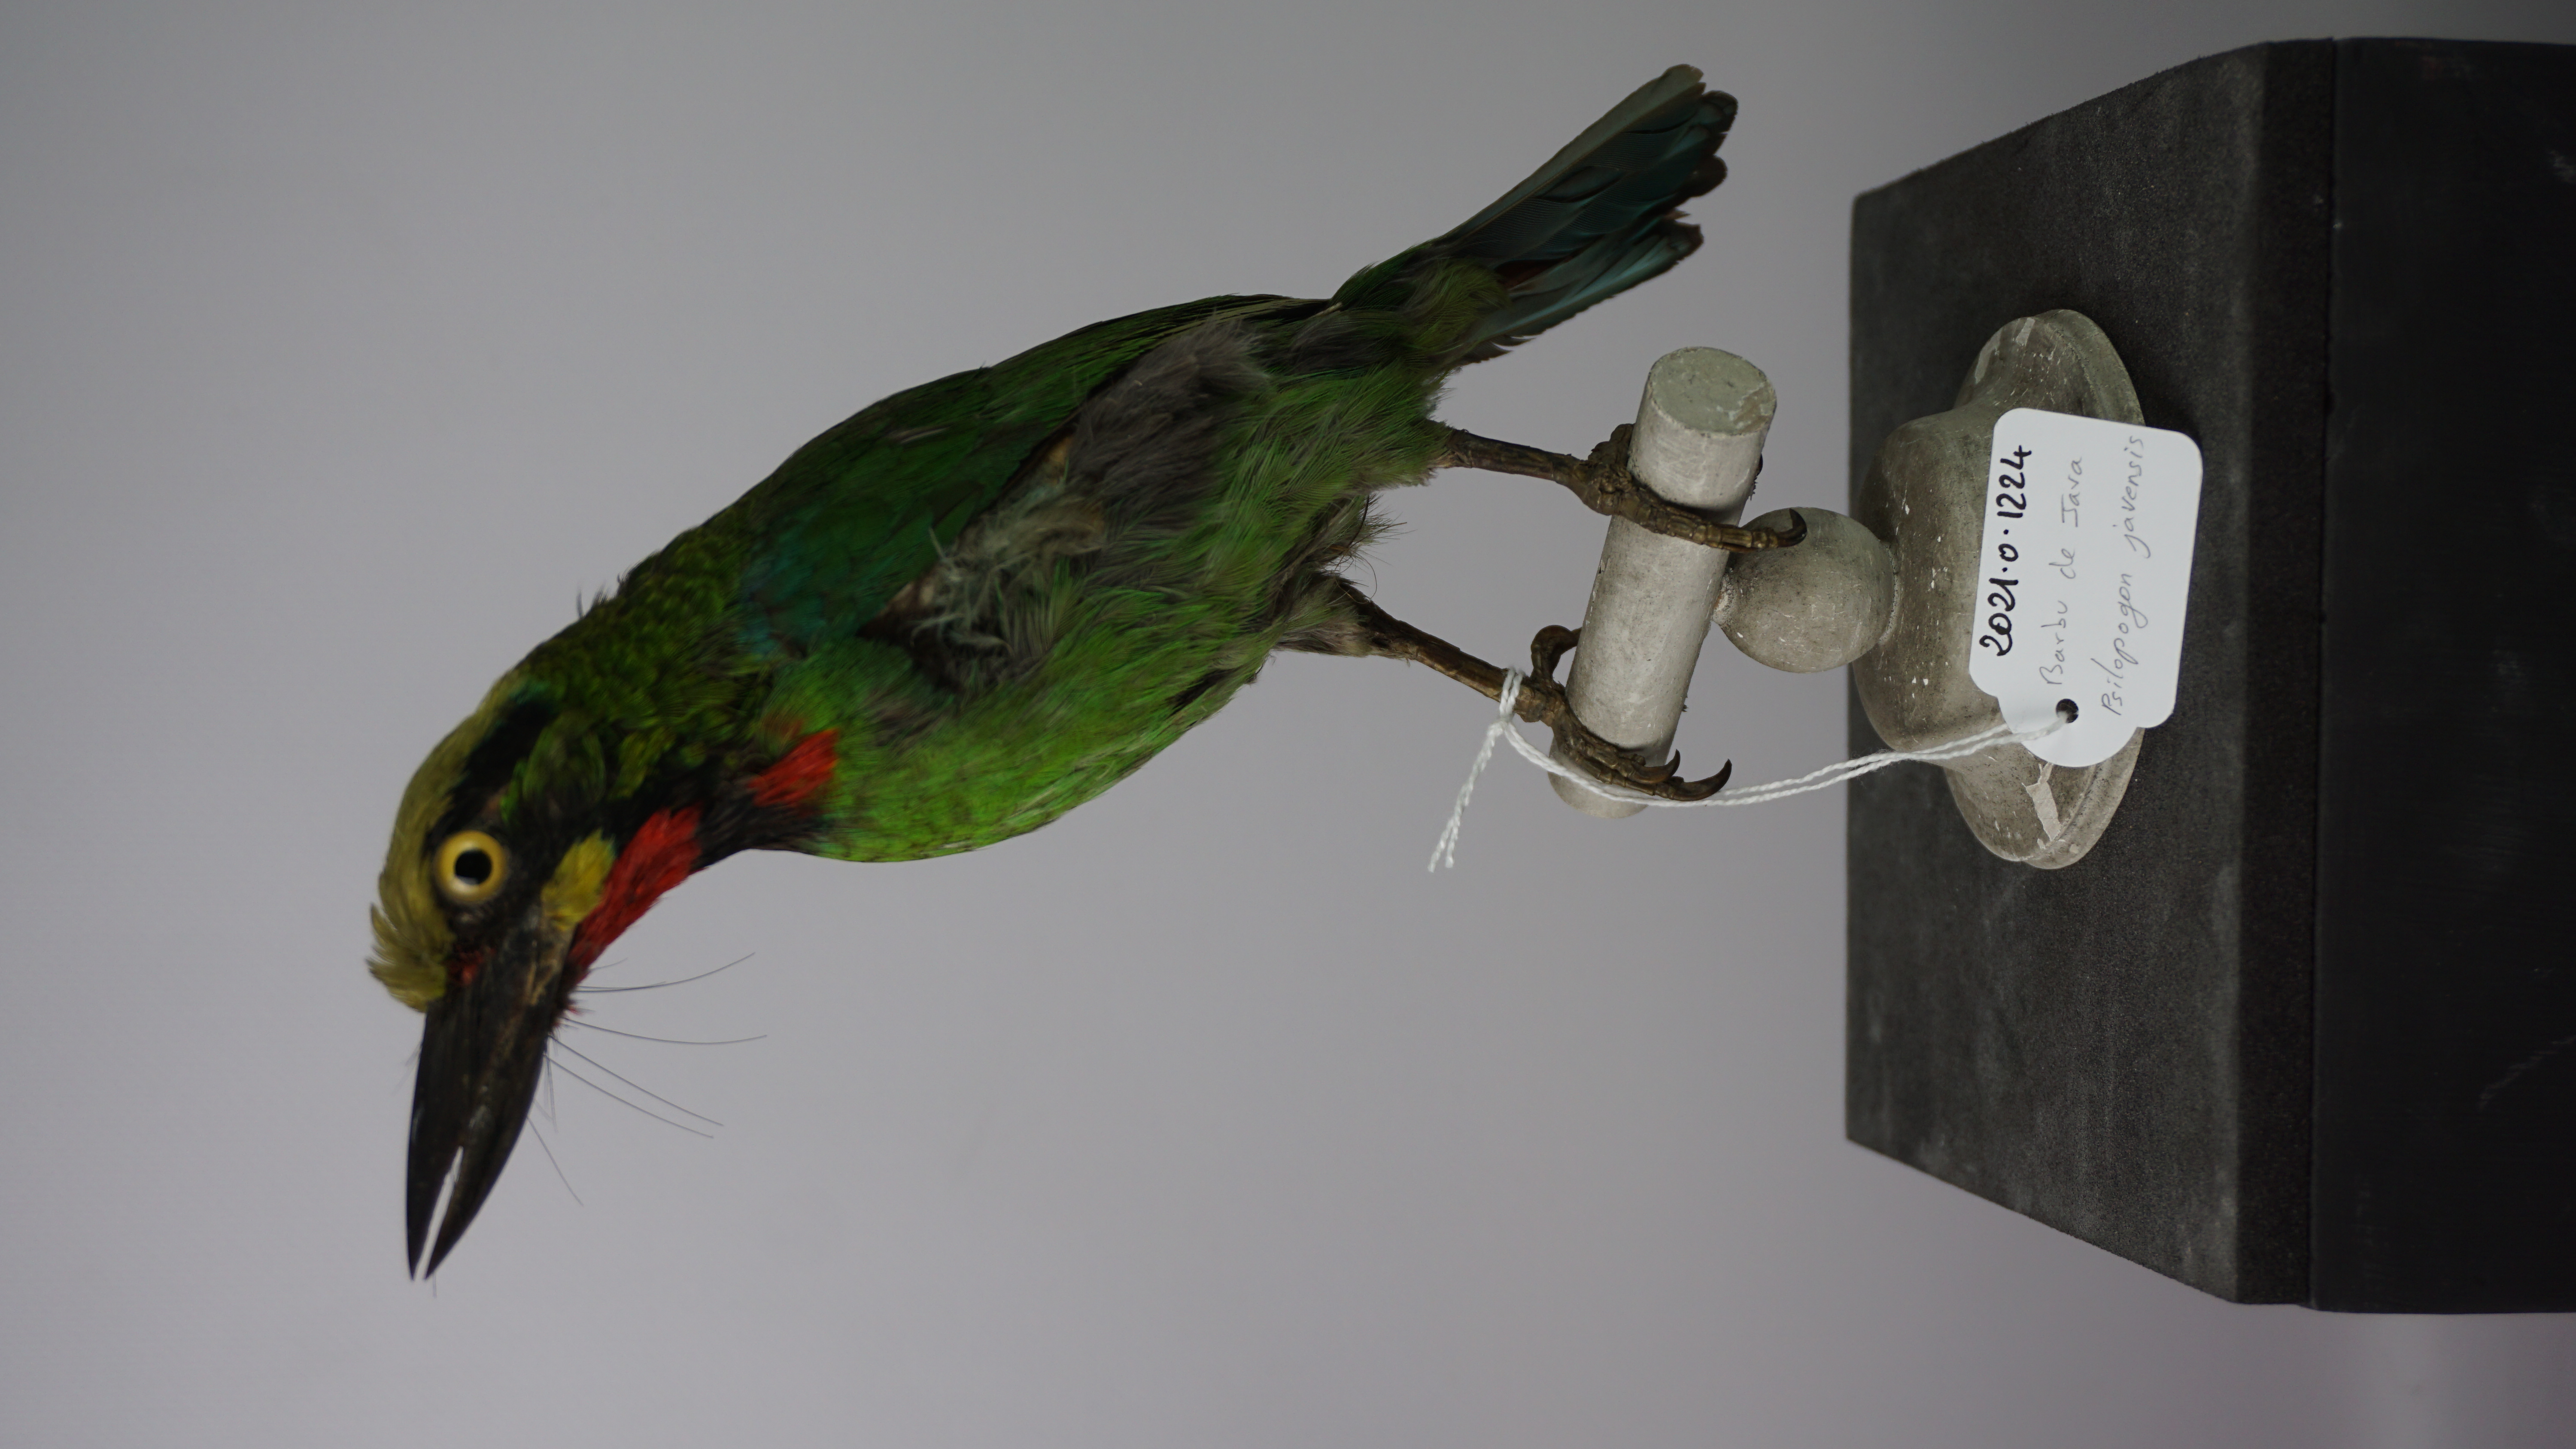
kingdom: Animalia
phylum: Chordata
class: Aves
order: Piciformes
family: Megalaimidae
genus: Psilopogon
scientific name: Psilopogon javensis
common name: Black-banded barbet
